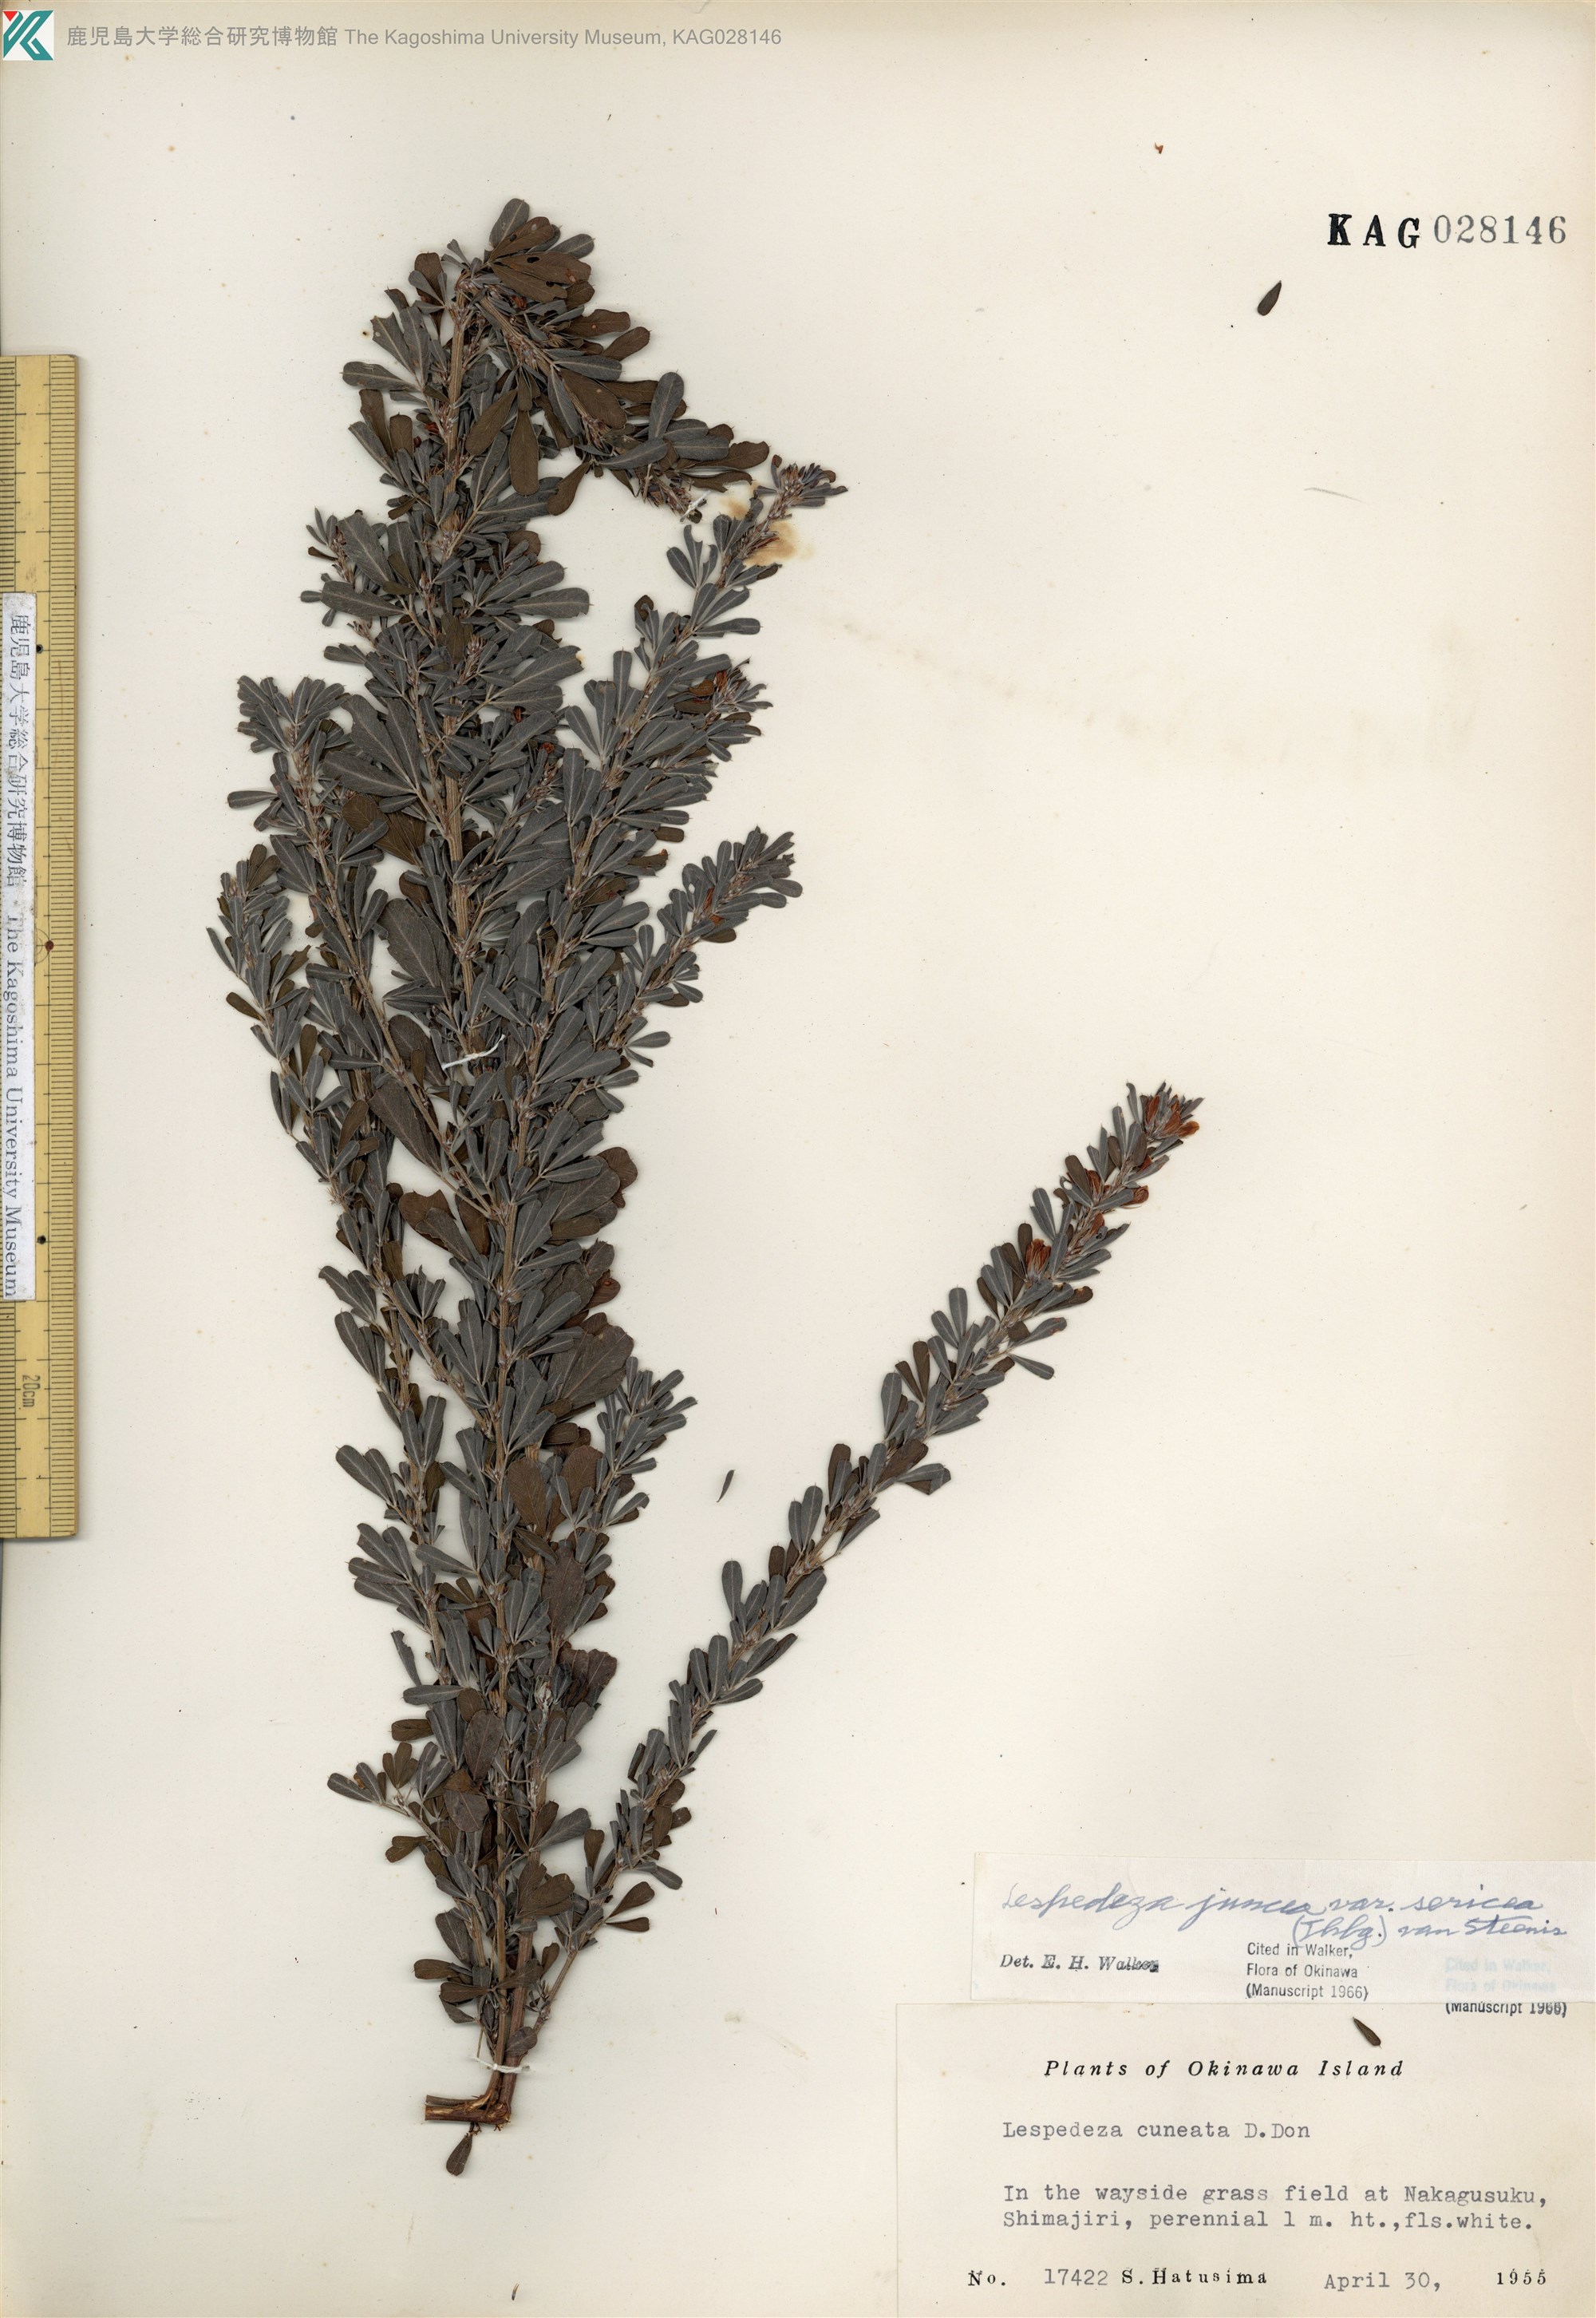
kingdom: Plantae
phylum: Tracheophyta
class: Magnoliopsida
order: Fabales
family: Fabaceae
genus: Lespedeza
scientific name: Lespedeza cuneata
